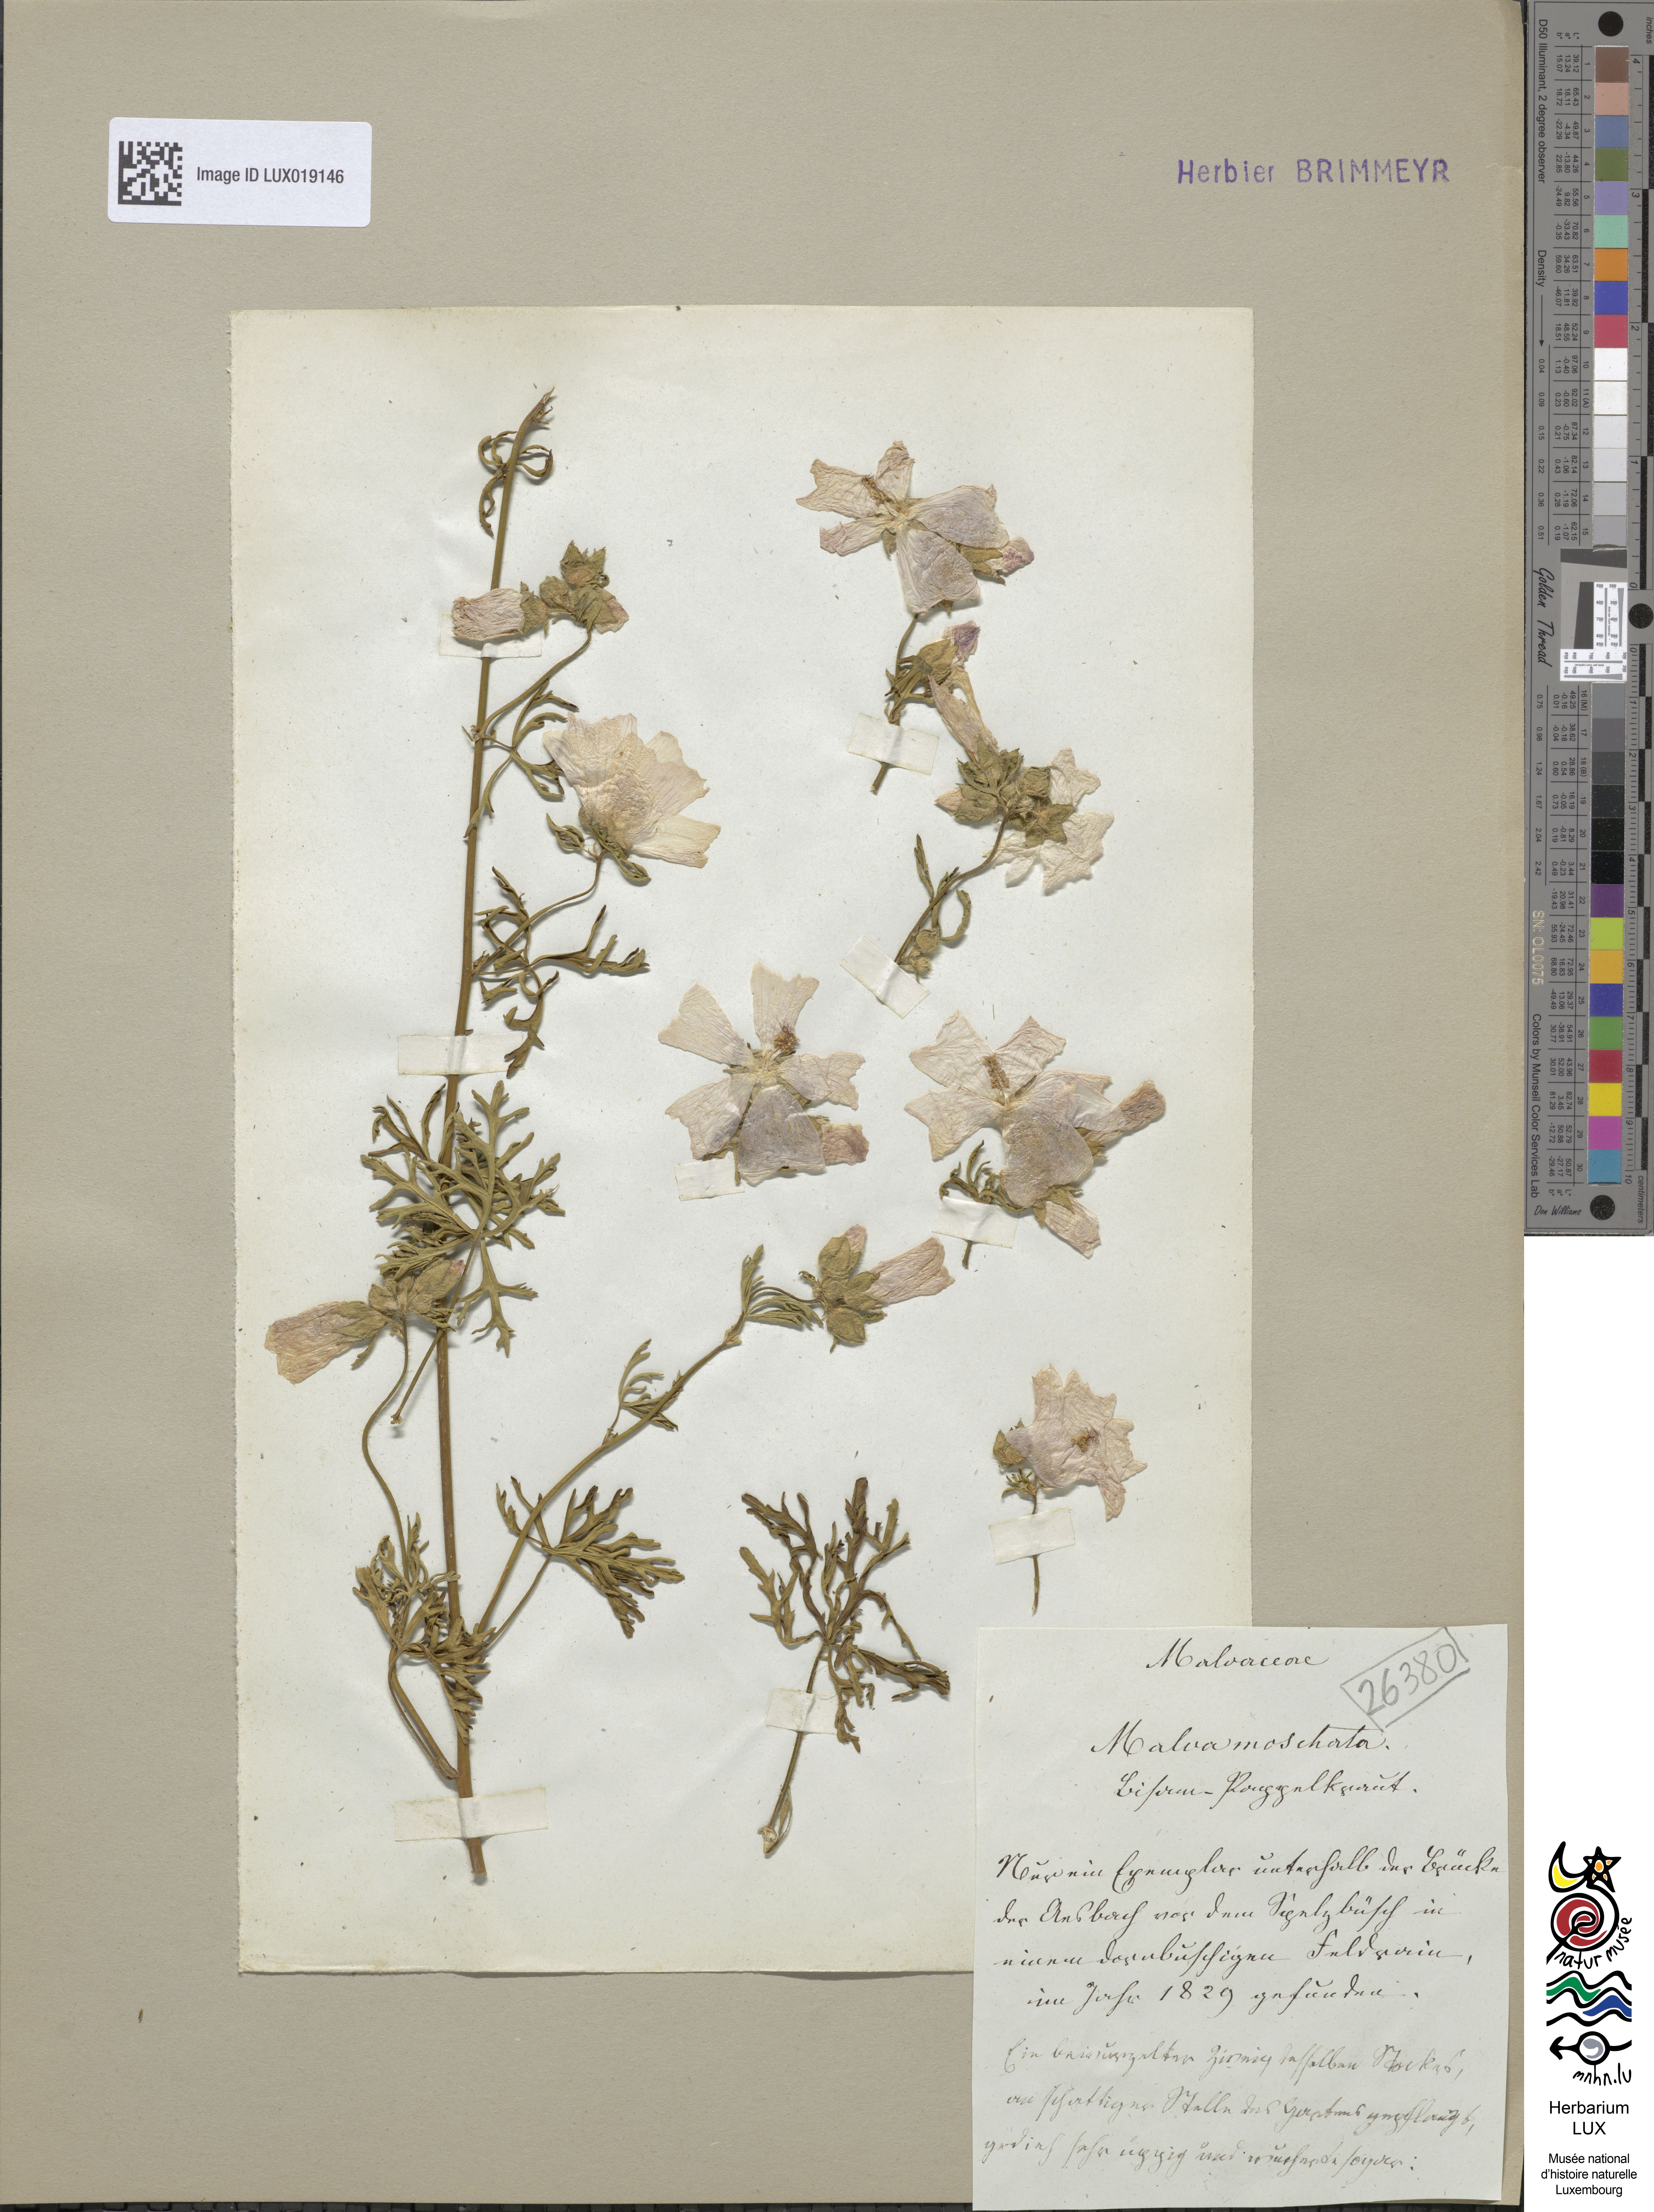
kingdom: Plantae
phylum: Tracheophyta
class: Magnoliopsida
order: Malvales
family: Malvaceae
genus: Malva
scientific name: Malva moschata
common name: Musk mallow
